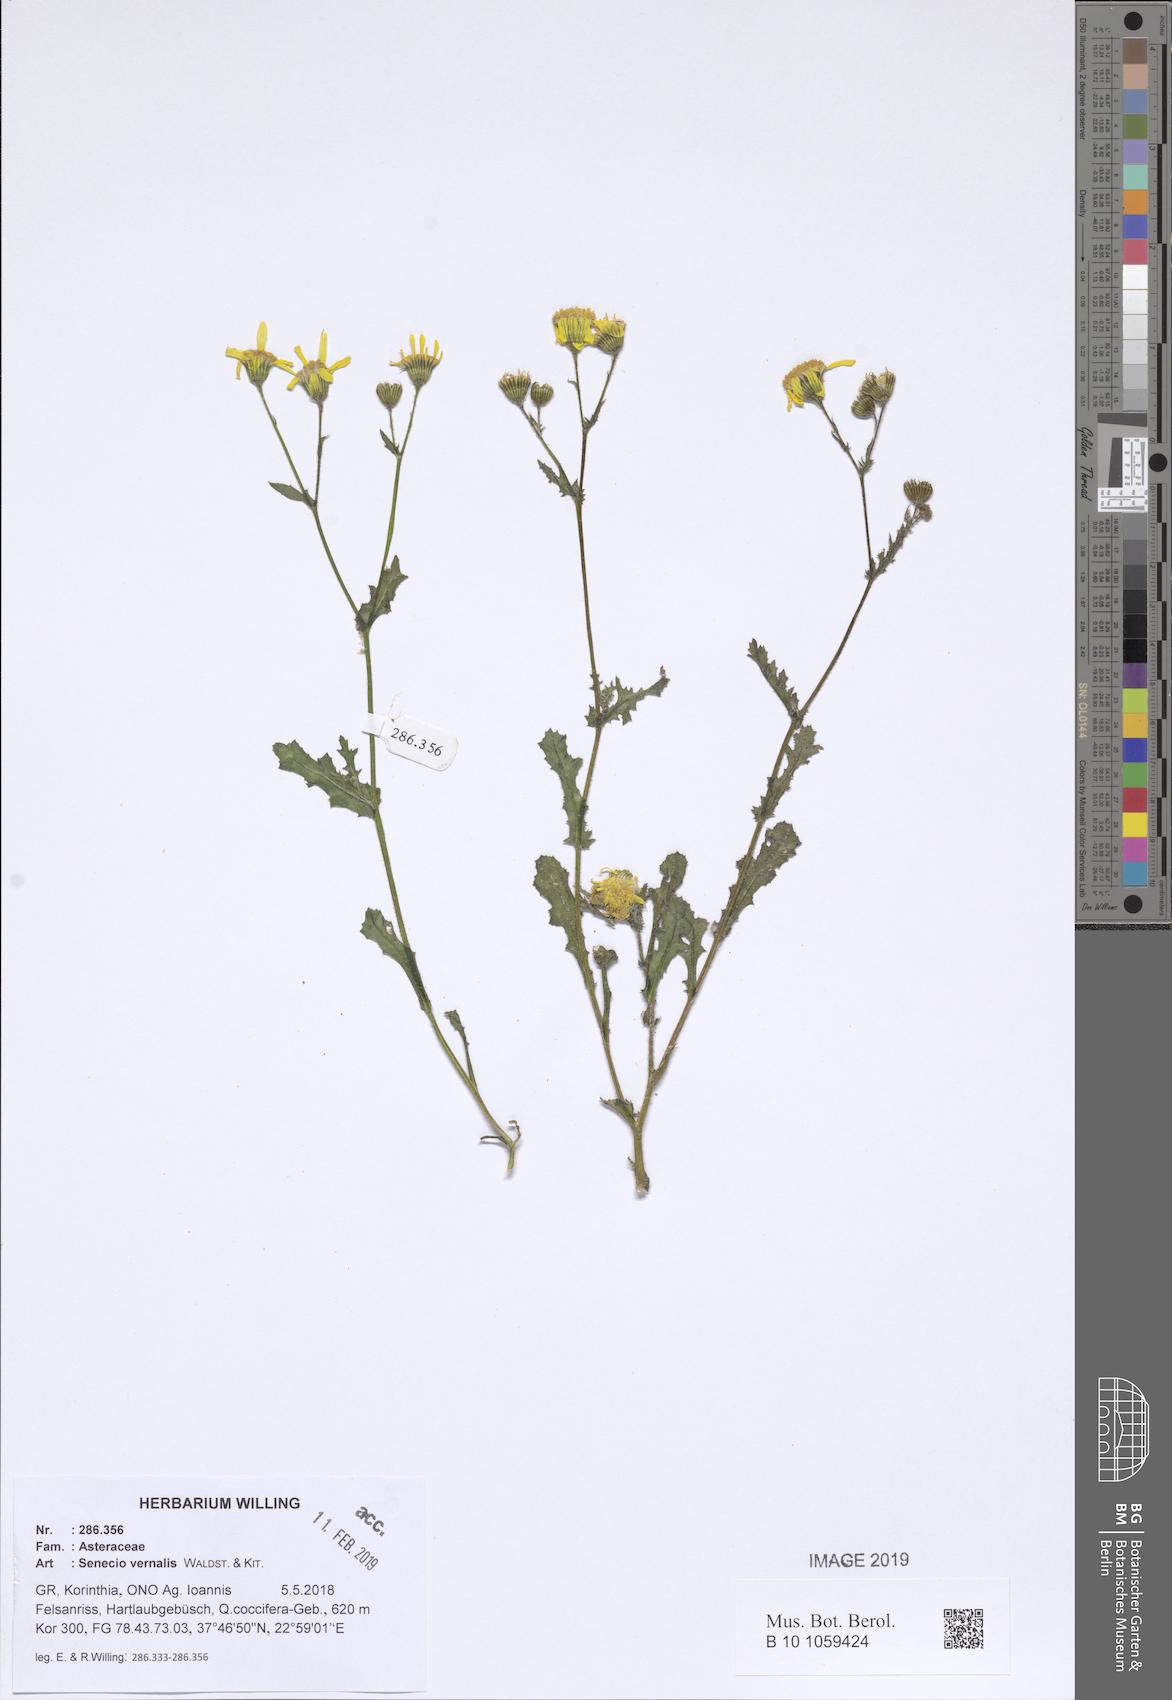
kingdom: Plantae
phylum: Tracheophyta
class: Magnoliopsida
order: Asterales
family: Asteraceae
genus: Senecio
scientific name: Senecio vernalis
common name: Eastern groundsel
